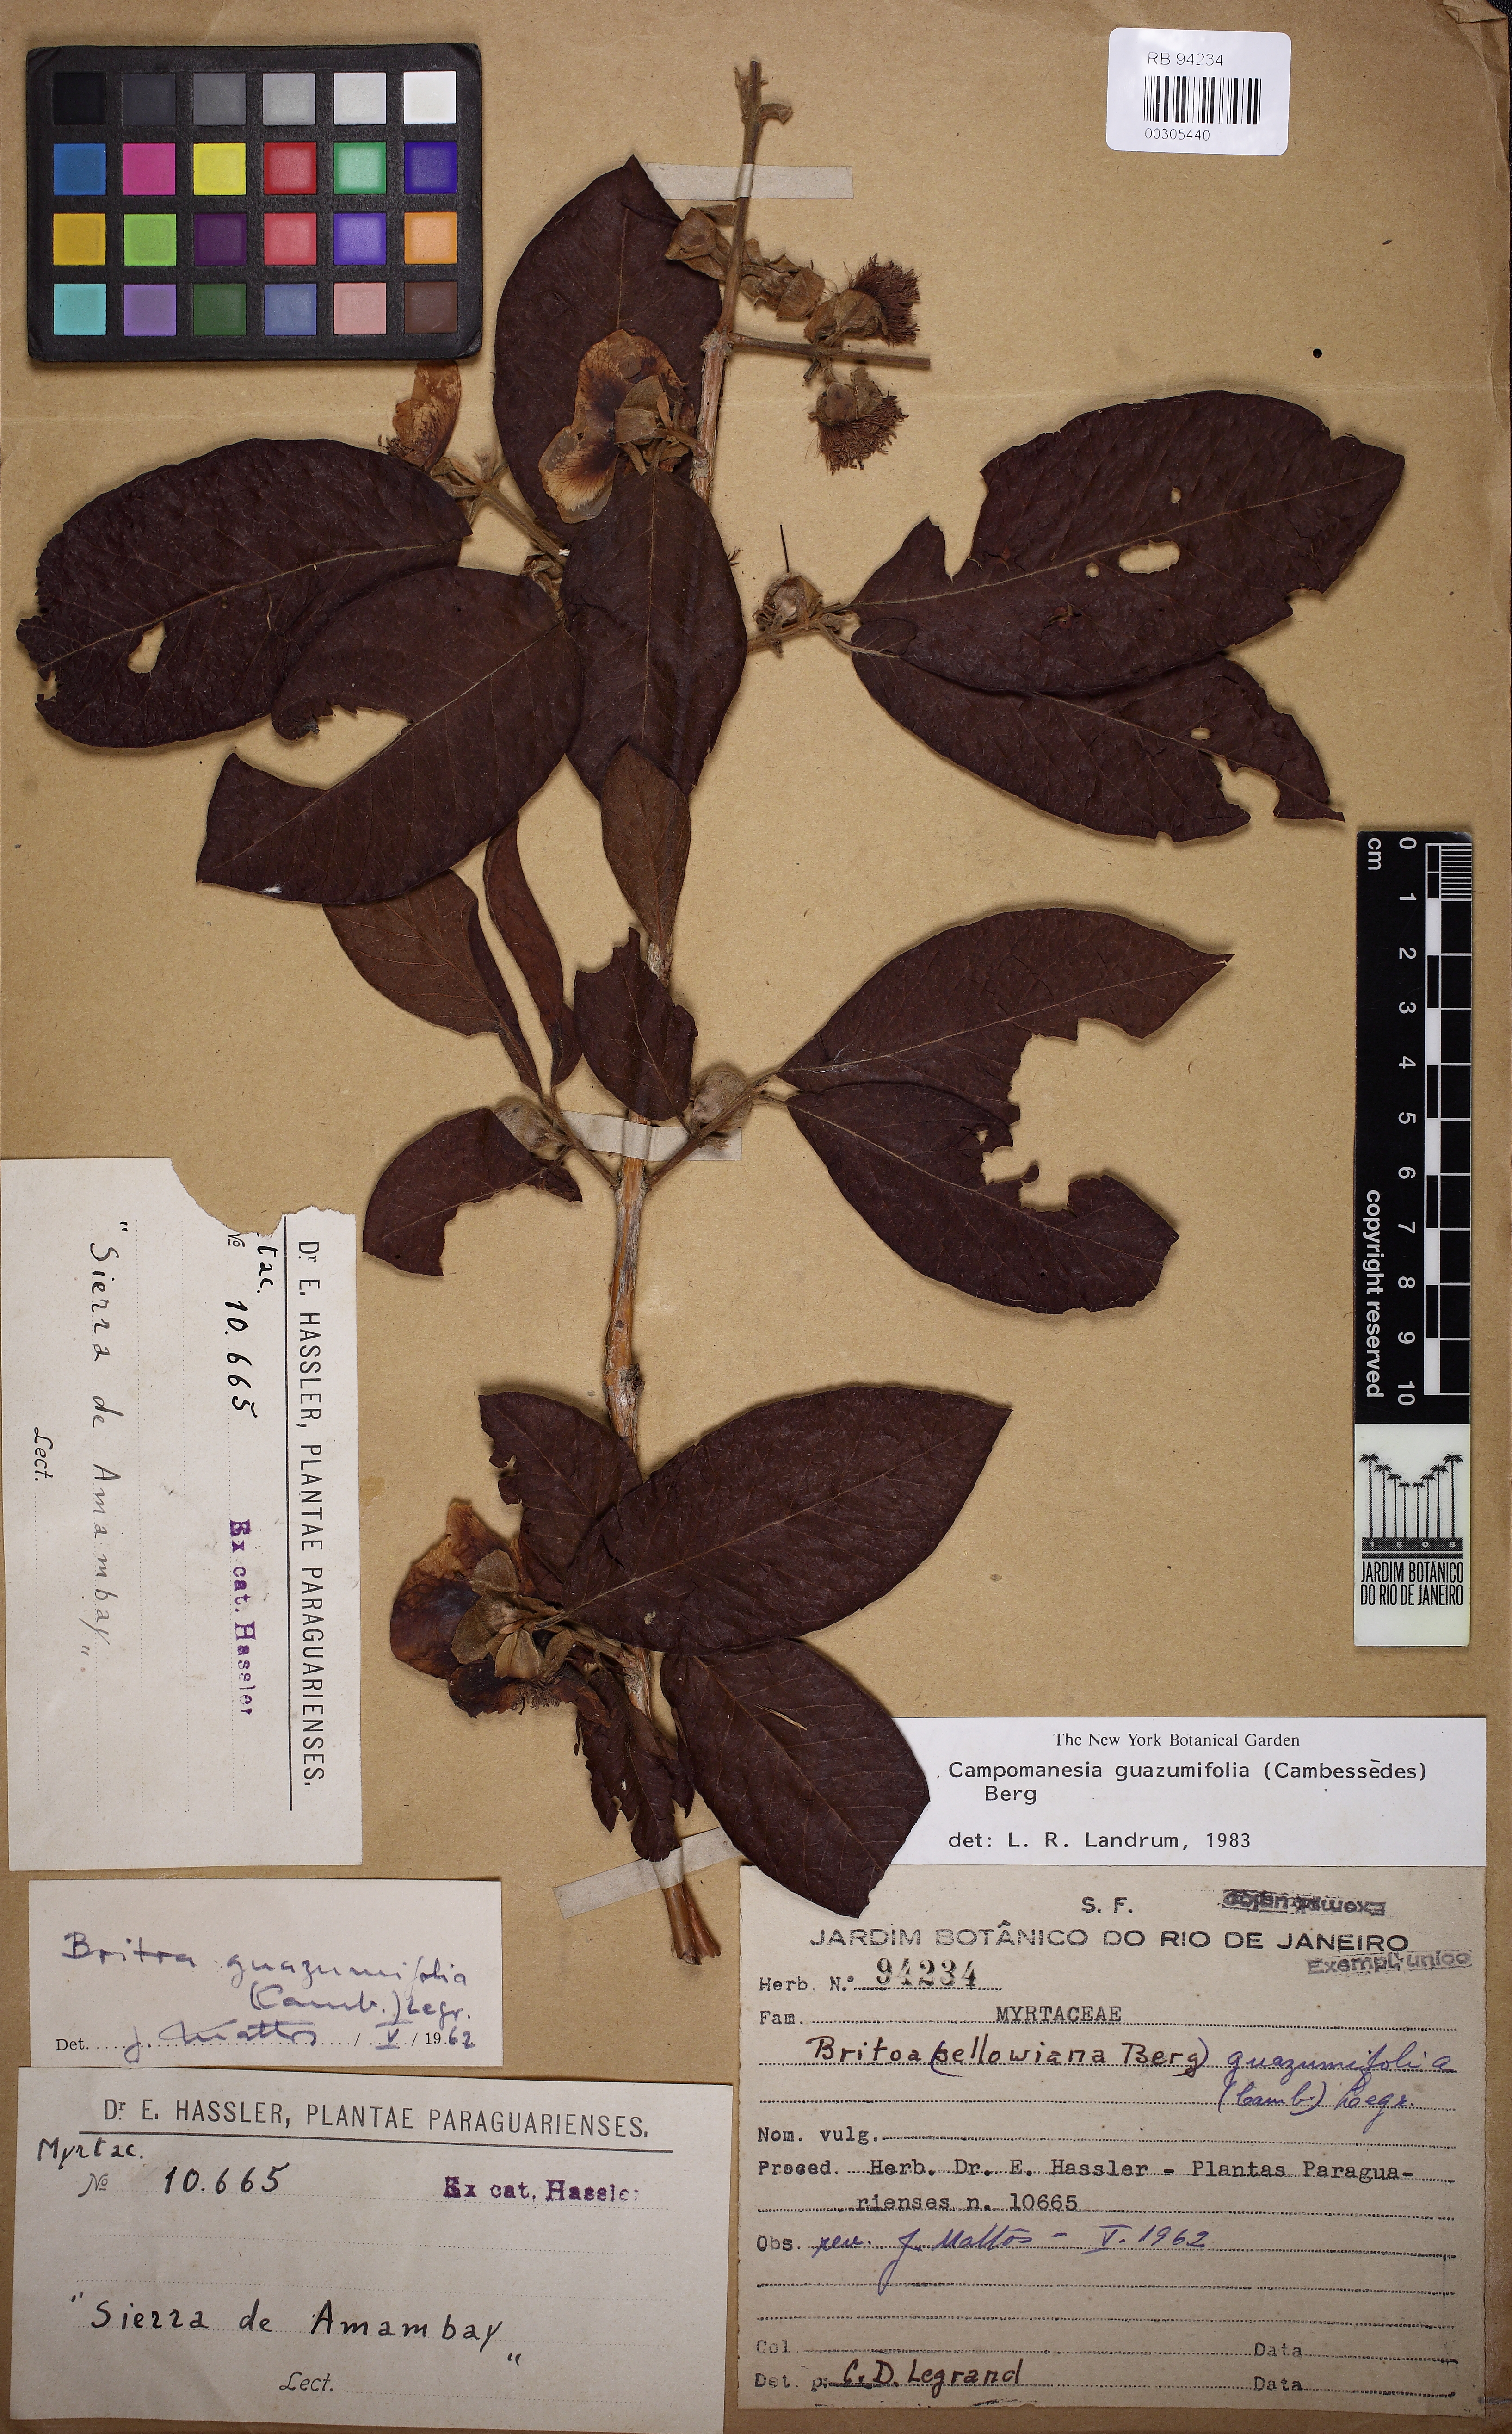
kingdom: Plantae
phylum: Tracheophyta
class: Magnoliopsida
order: Myrtales
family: Myrtaceae
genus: Campomanesia
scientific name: Campomanesia guazumifolia
